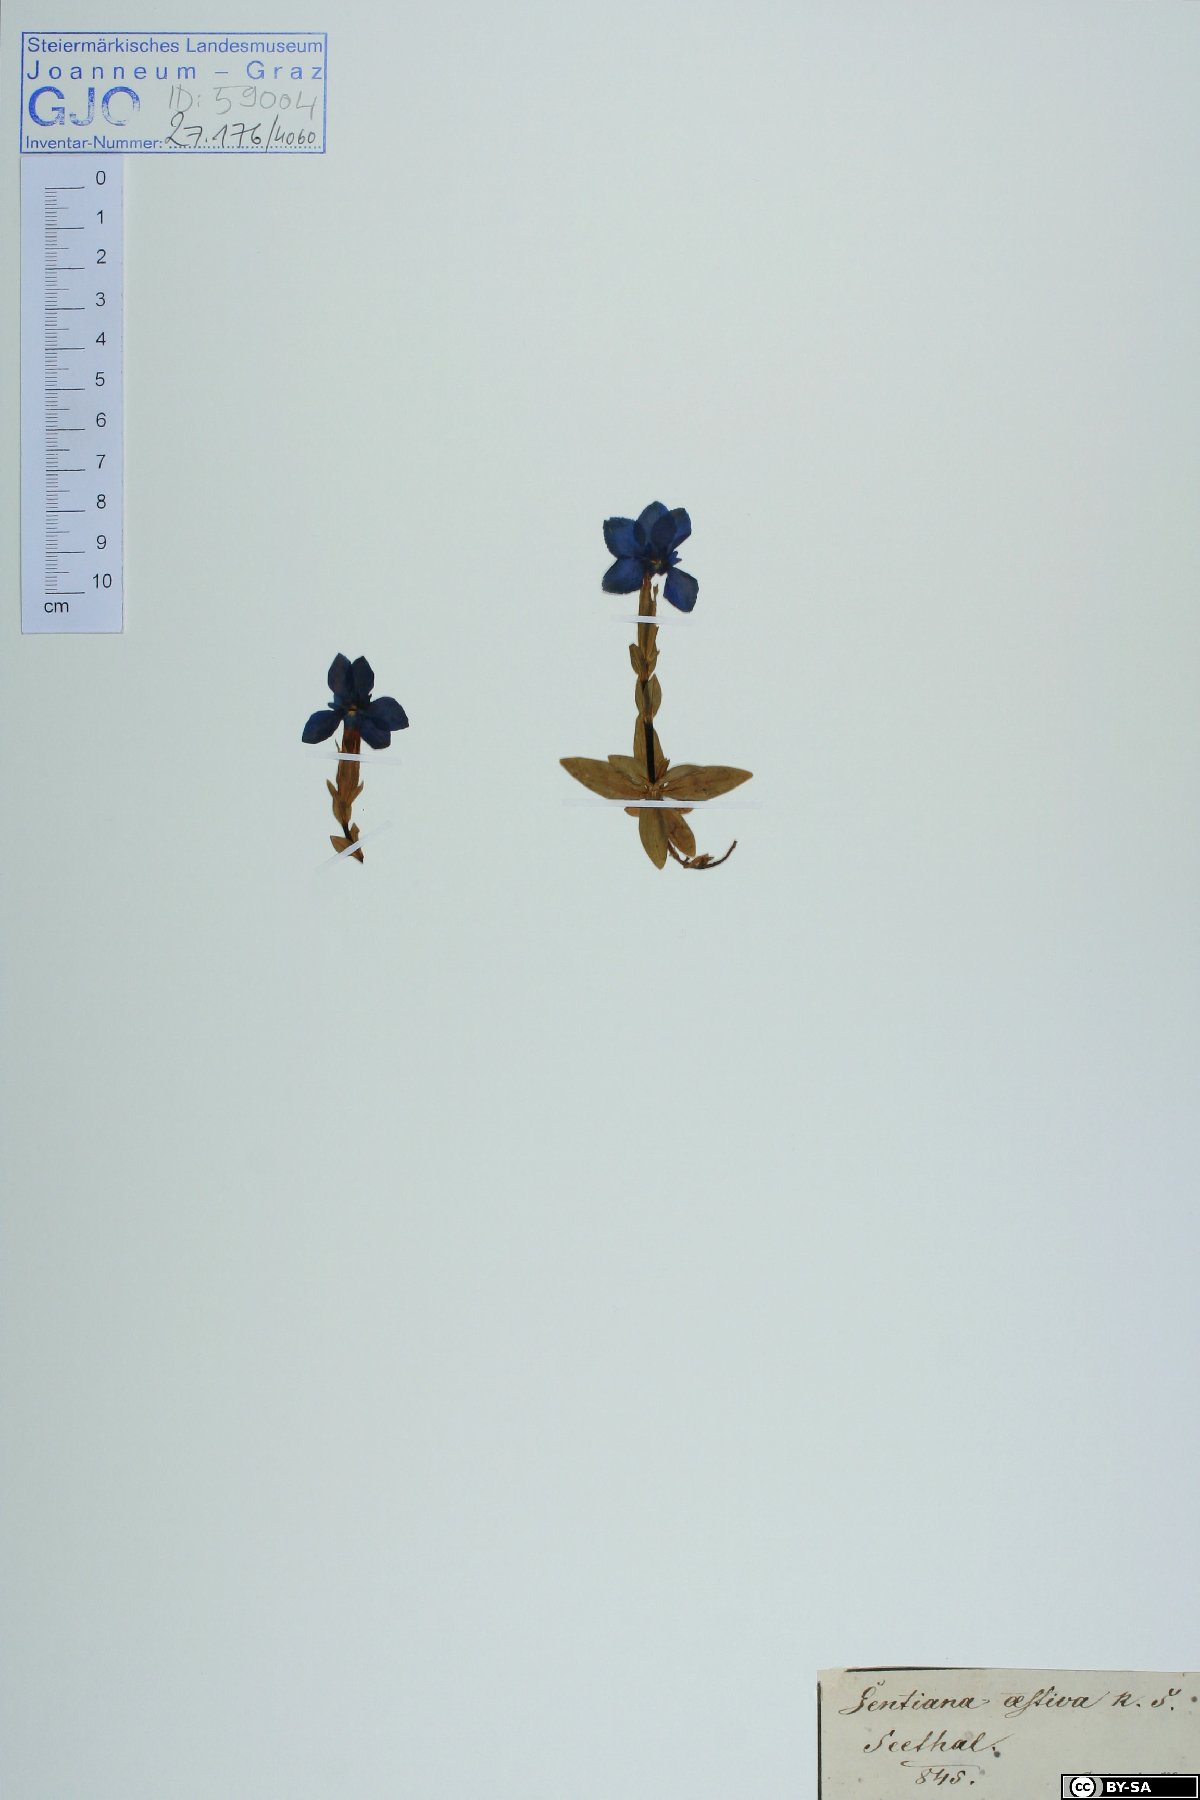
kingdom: Plantae
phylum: Tracheophyta
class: Magnoliopsida
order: Gentianales
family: Gentianaceae
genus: Gentiana
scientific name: Gentiana verna
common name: Spring gentian
